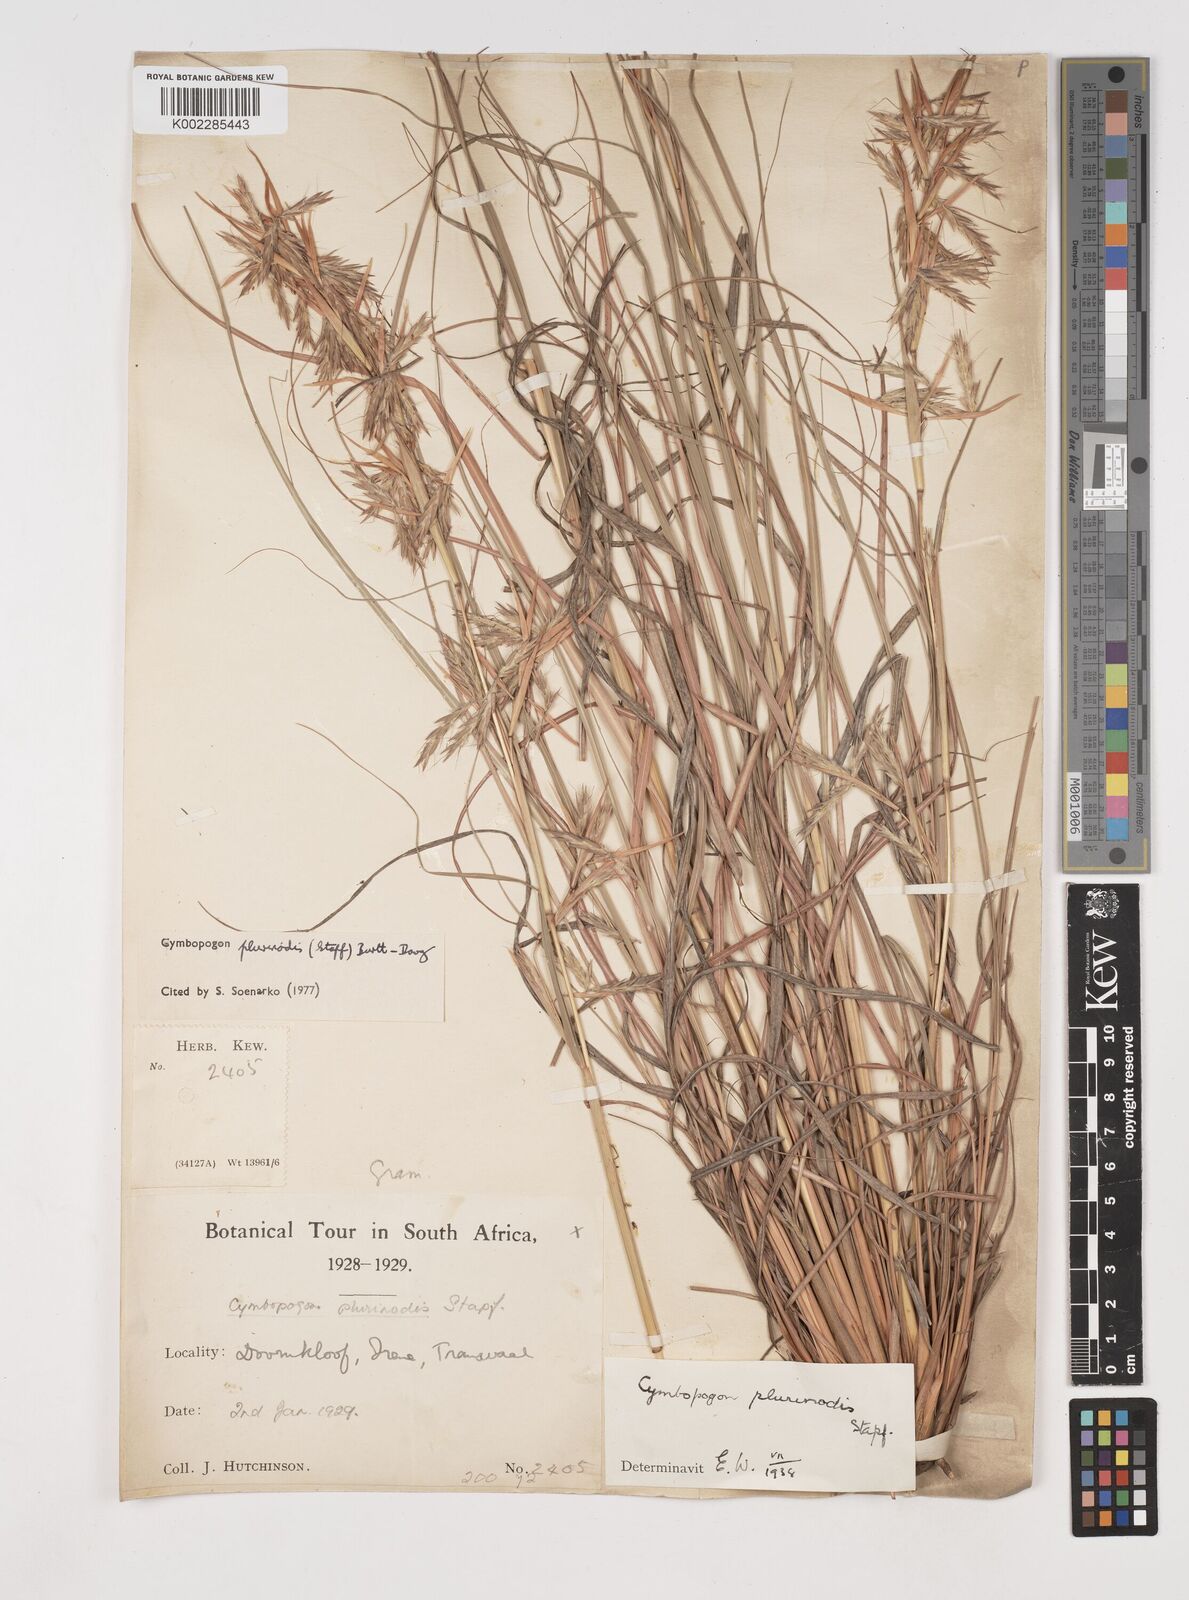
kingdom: Plantae
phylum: Tracheophyta
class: Liliopsida
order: Poales
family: Poaceae
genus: Cymbopogon
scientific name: Cymbopogon
